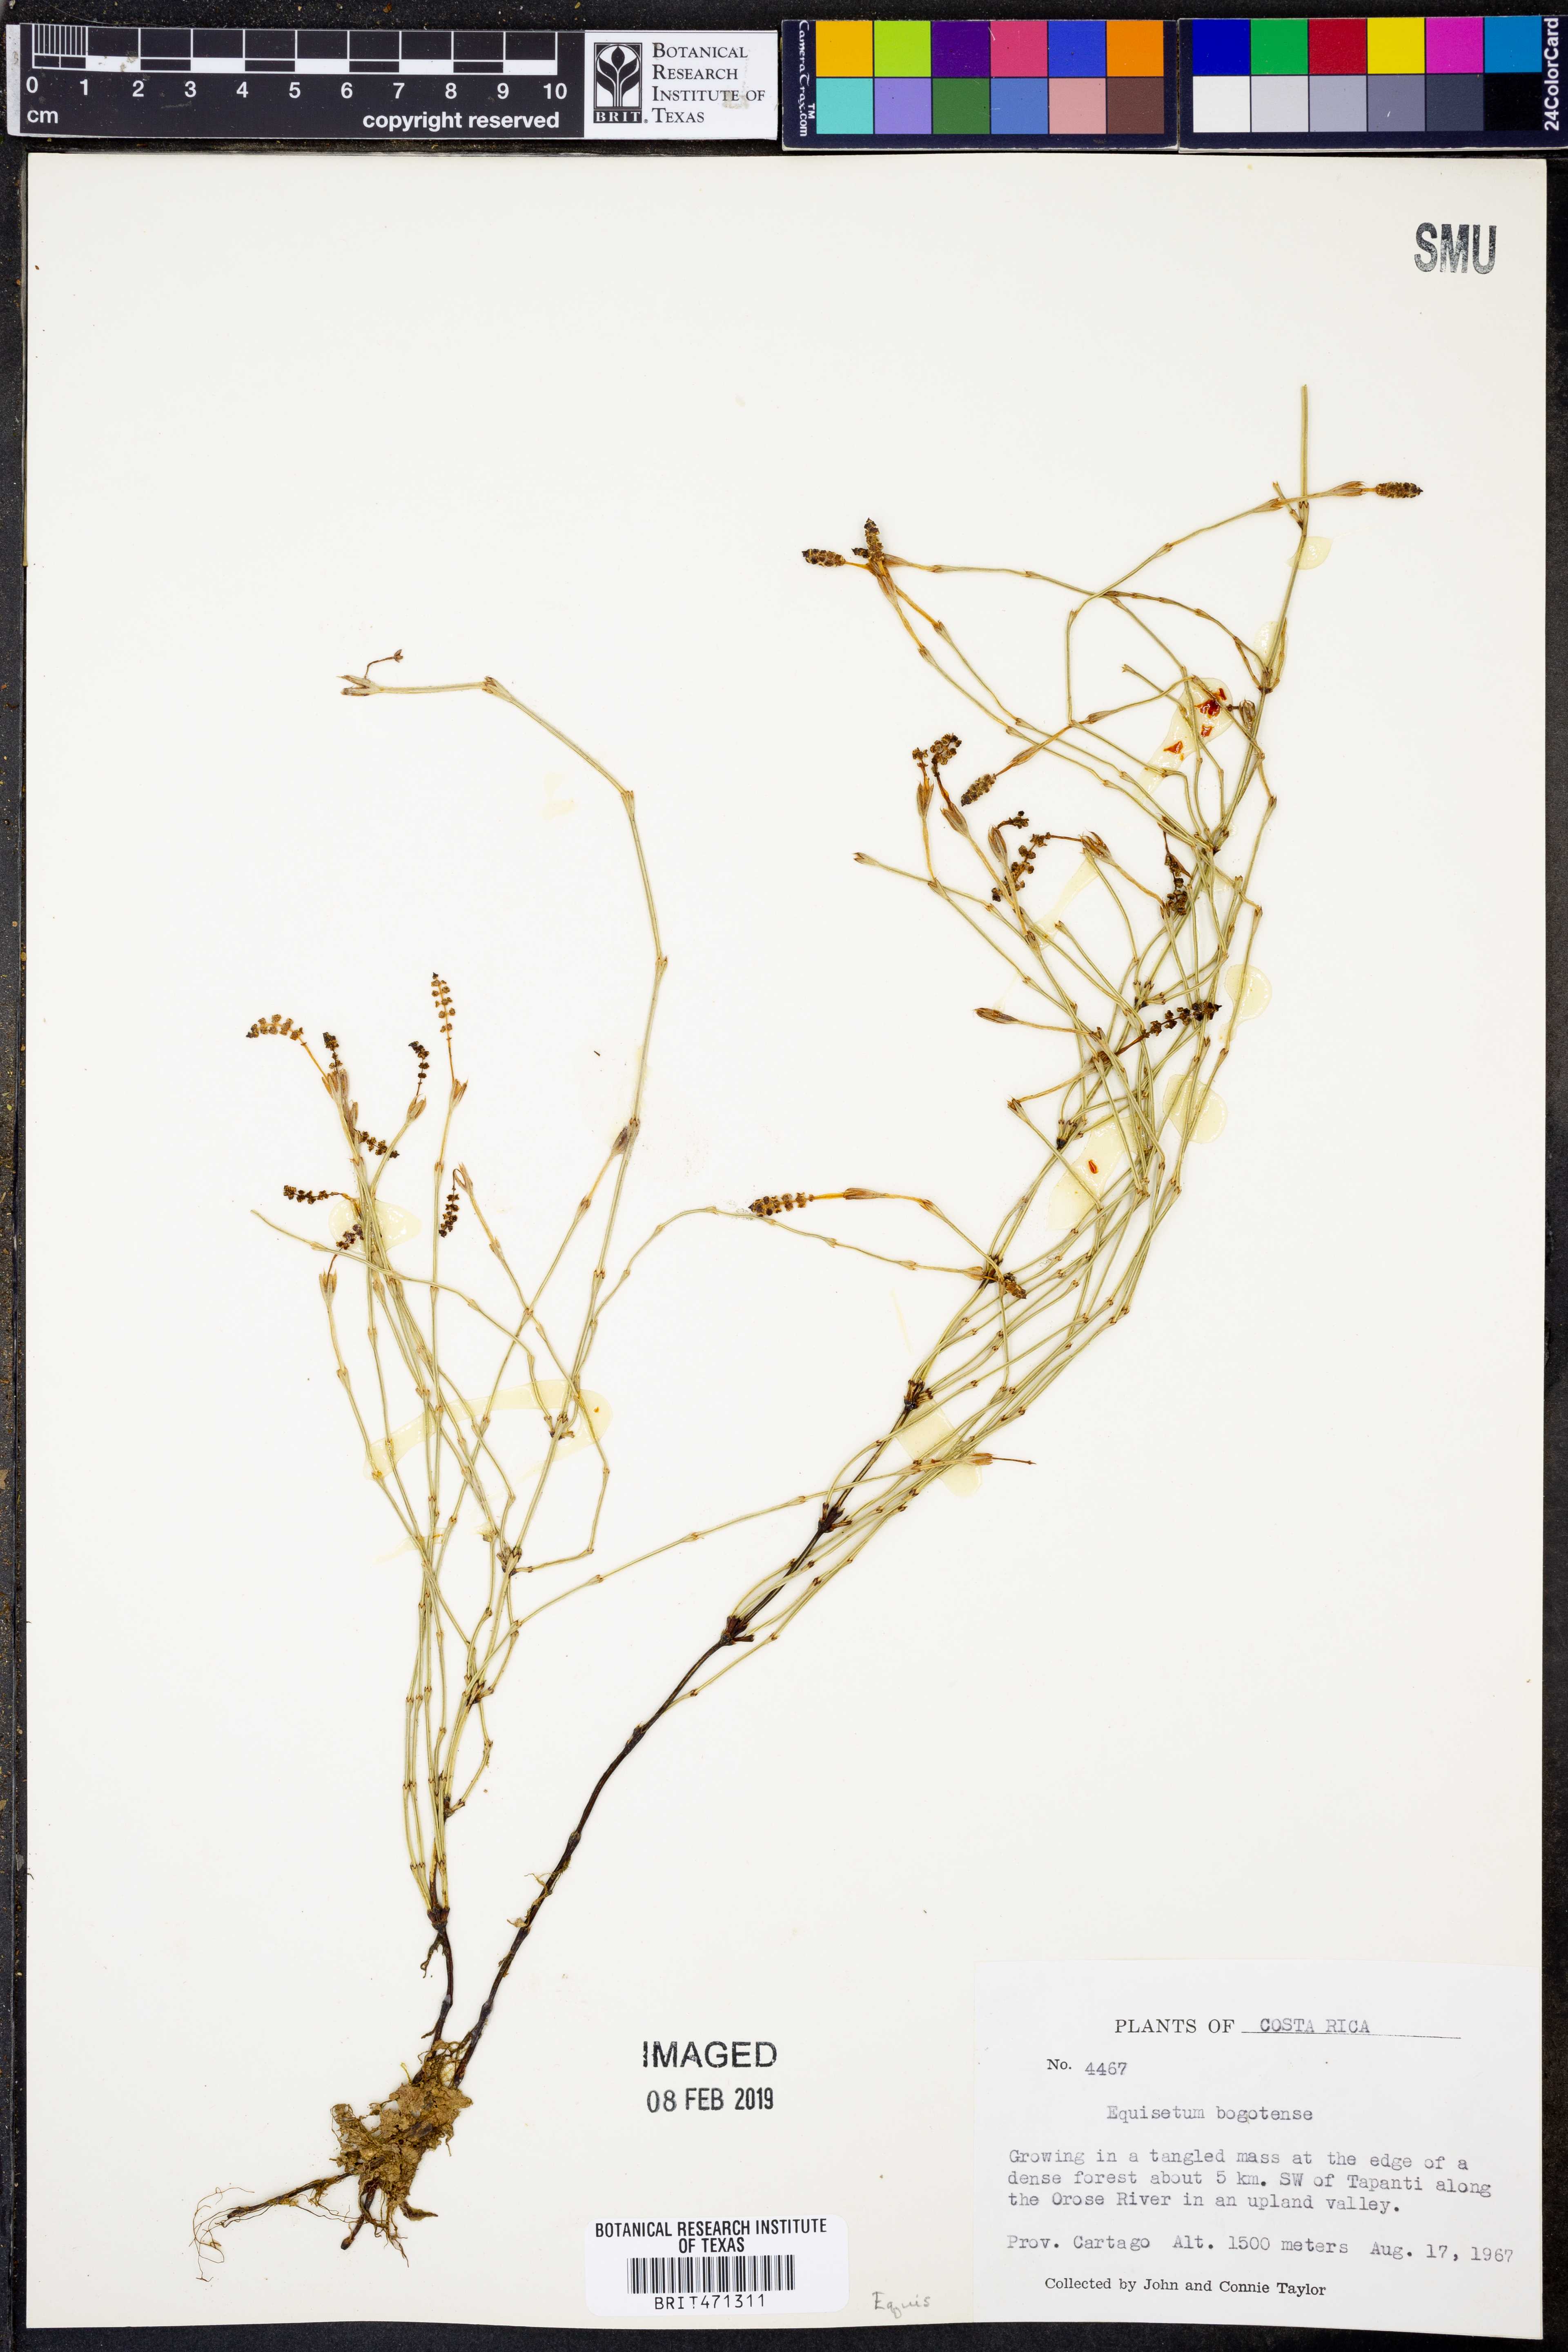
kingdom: Plantae
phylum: Tracheophyta
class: Polypodiopsida
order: Equisetales
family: Equisetaceae
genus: Equisetum
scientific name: Equisetum bogotense
